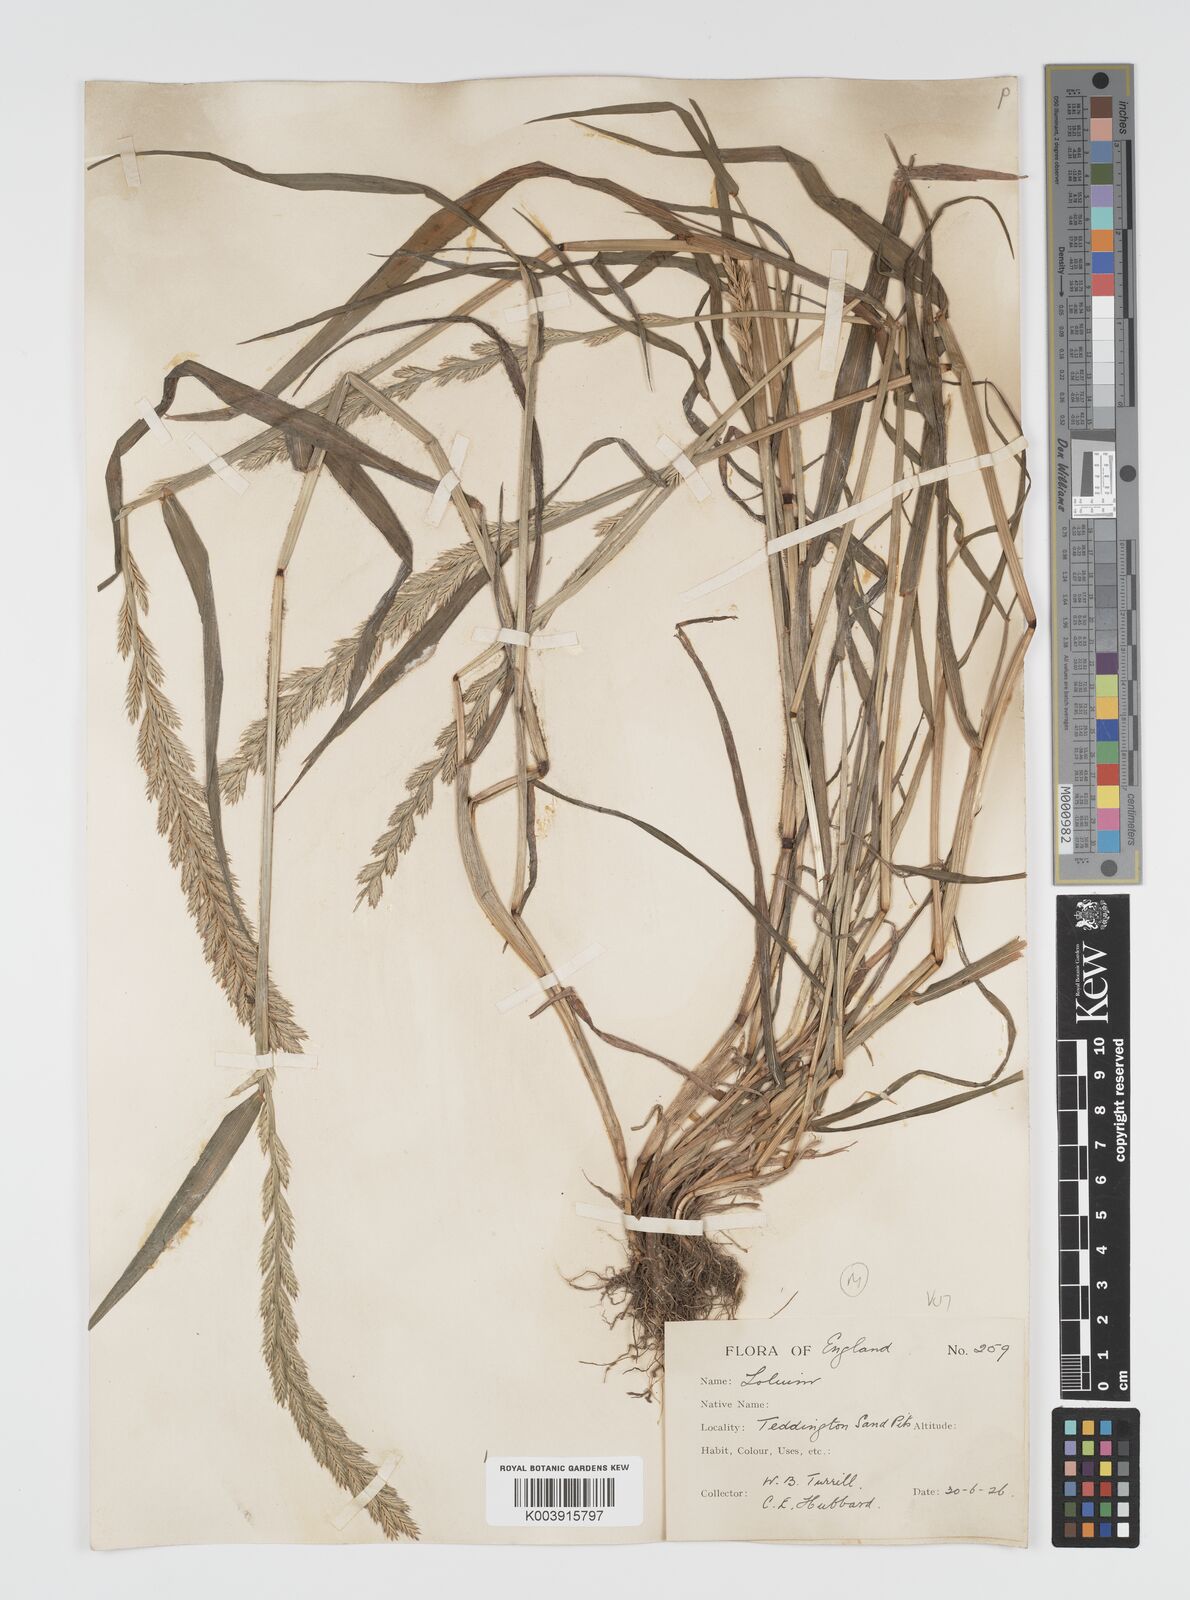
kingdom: Plantae
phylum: Tracheophyta
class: Liliopsida
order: Poales
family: Poaceae
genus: Lolium
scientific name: Lolium multiflorum
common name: Annual ryegrass
